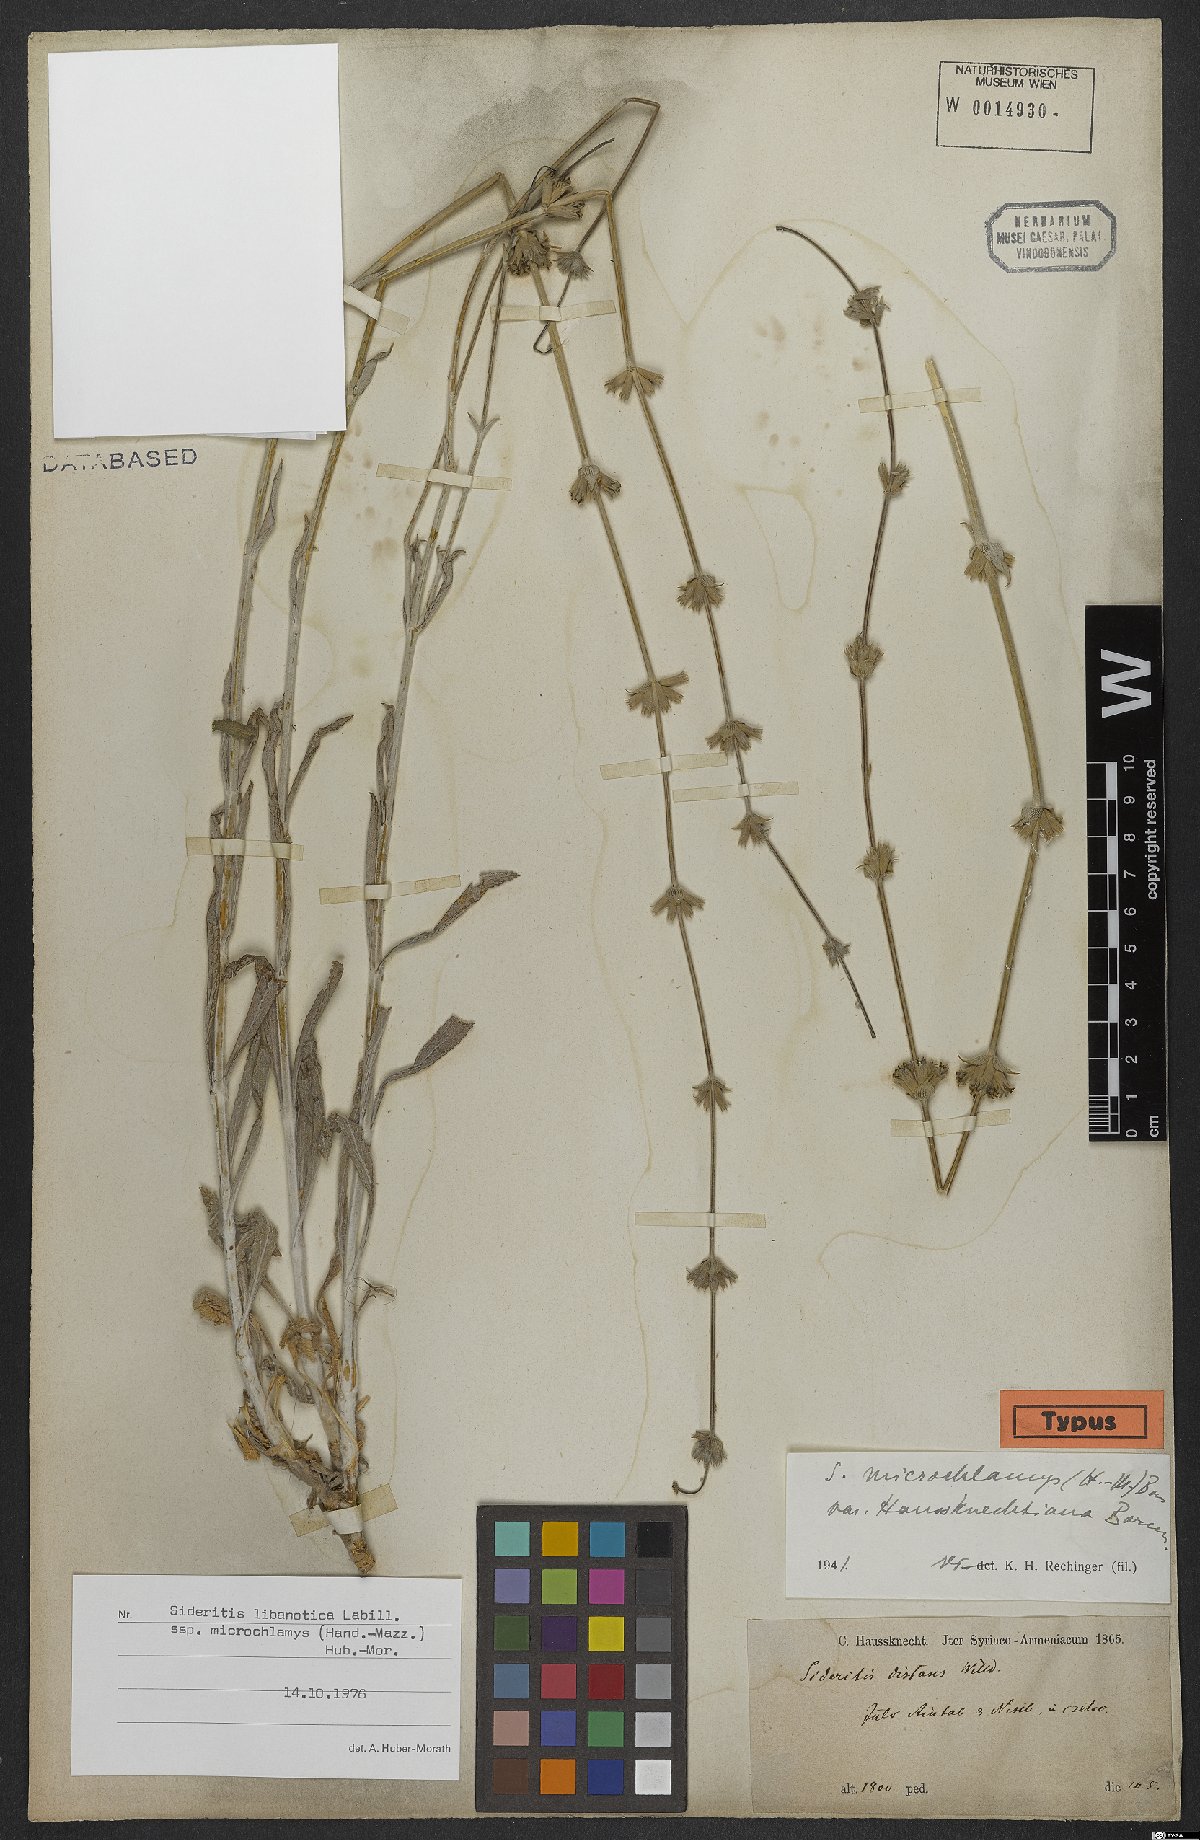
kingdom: Plantae
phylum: Tracheophyta
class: Magnoliopsida
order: Lamiales
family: Lamiaceae
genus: Sideritis
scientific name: Sideritis libanotica
